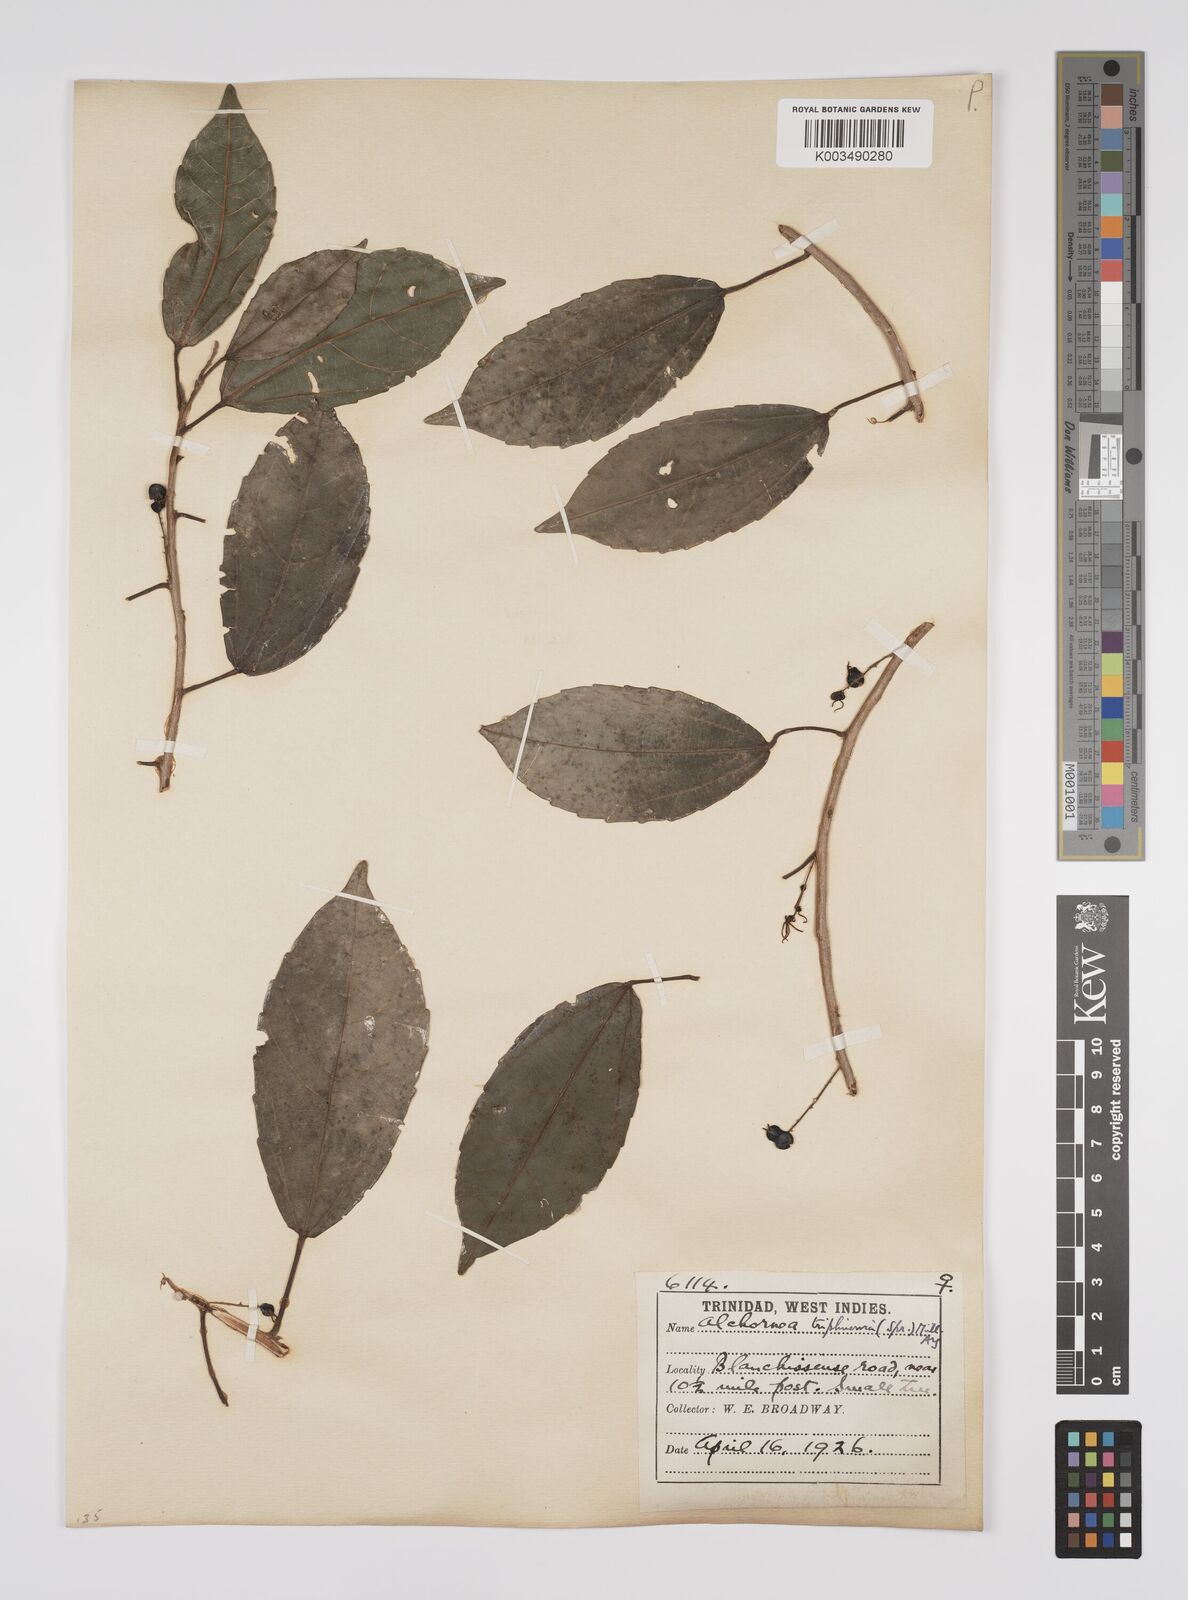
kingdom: Plantae
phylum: Tracheophyta
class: Magnoliopsida
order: Malpighiales
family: Euphorbiaceae
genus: Alchornea
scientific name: Alchornea triplinervia
